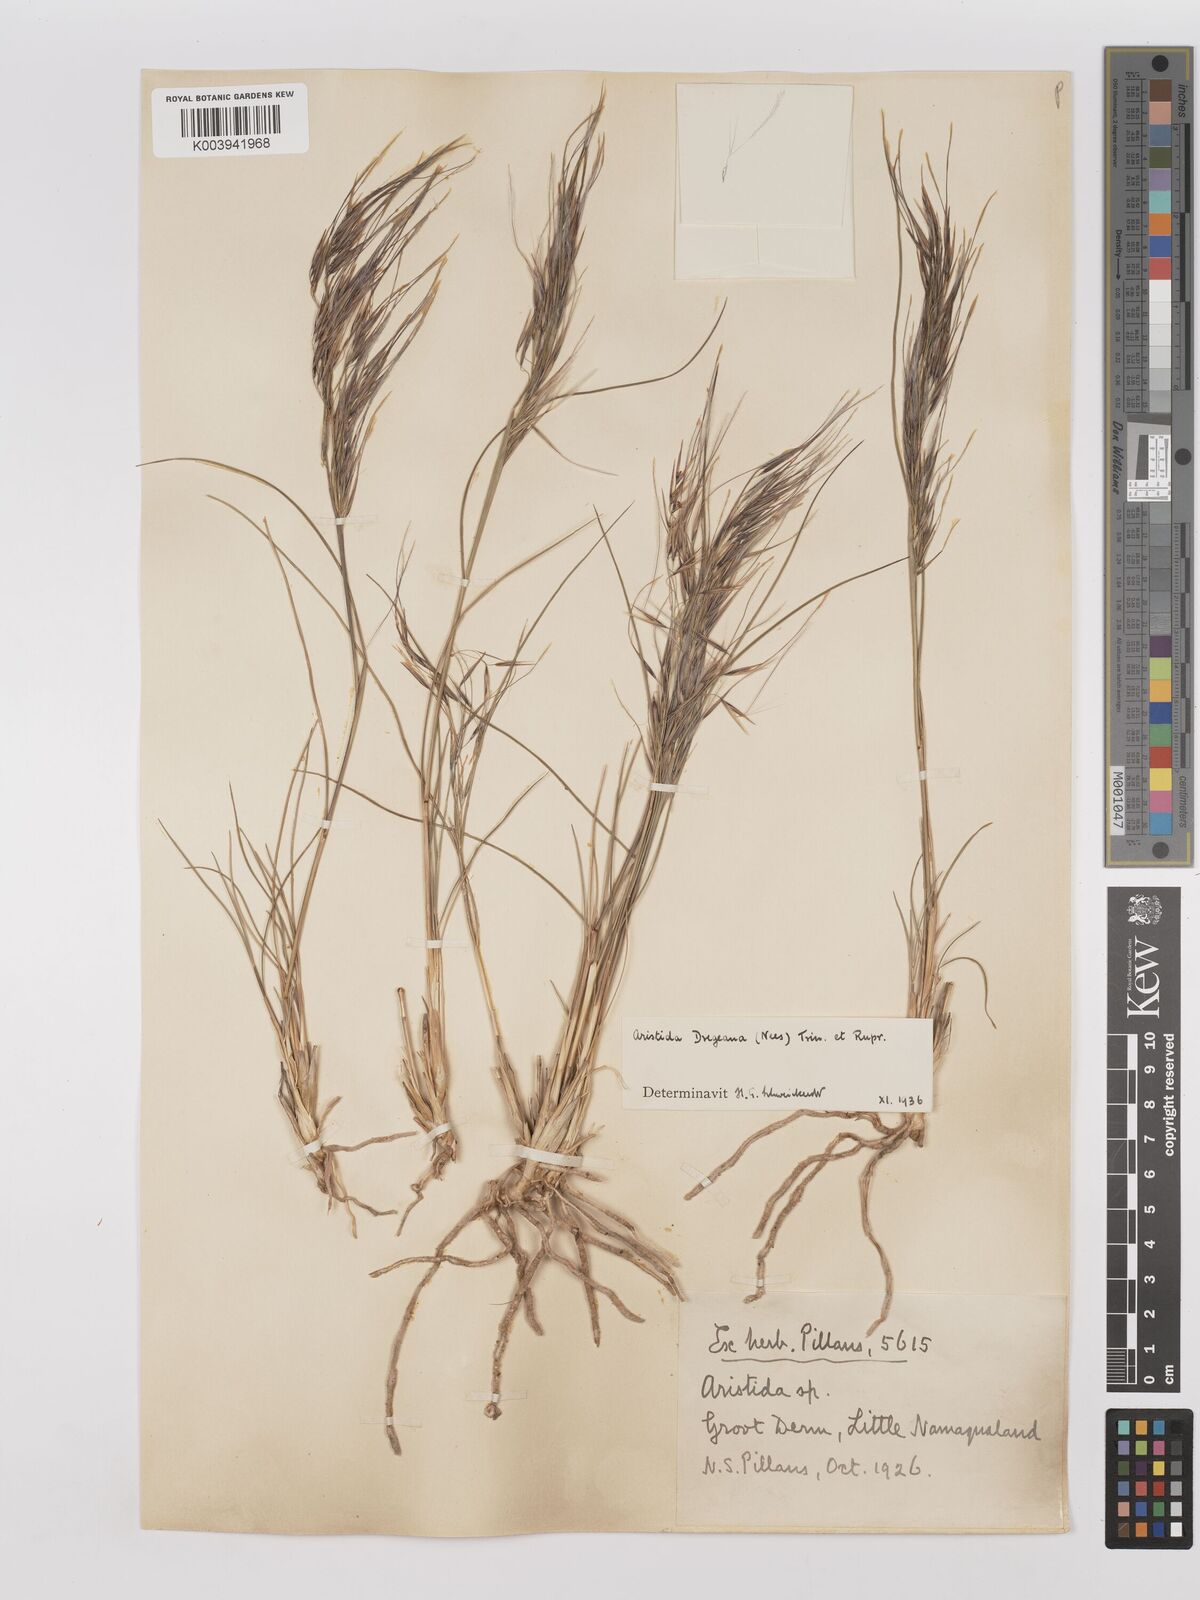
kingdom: Plantae
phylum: Tracheophyta
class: Liliopsida
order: Poales
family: Poaceae
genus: Stipagrostis
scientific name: Stipagrostis dregeana
